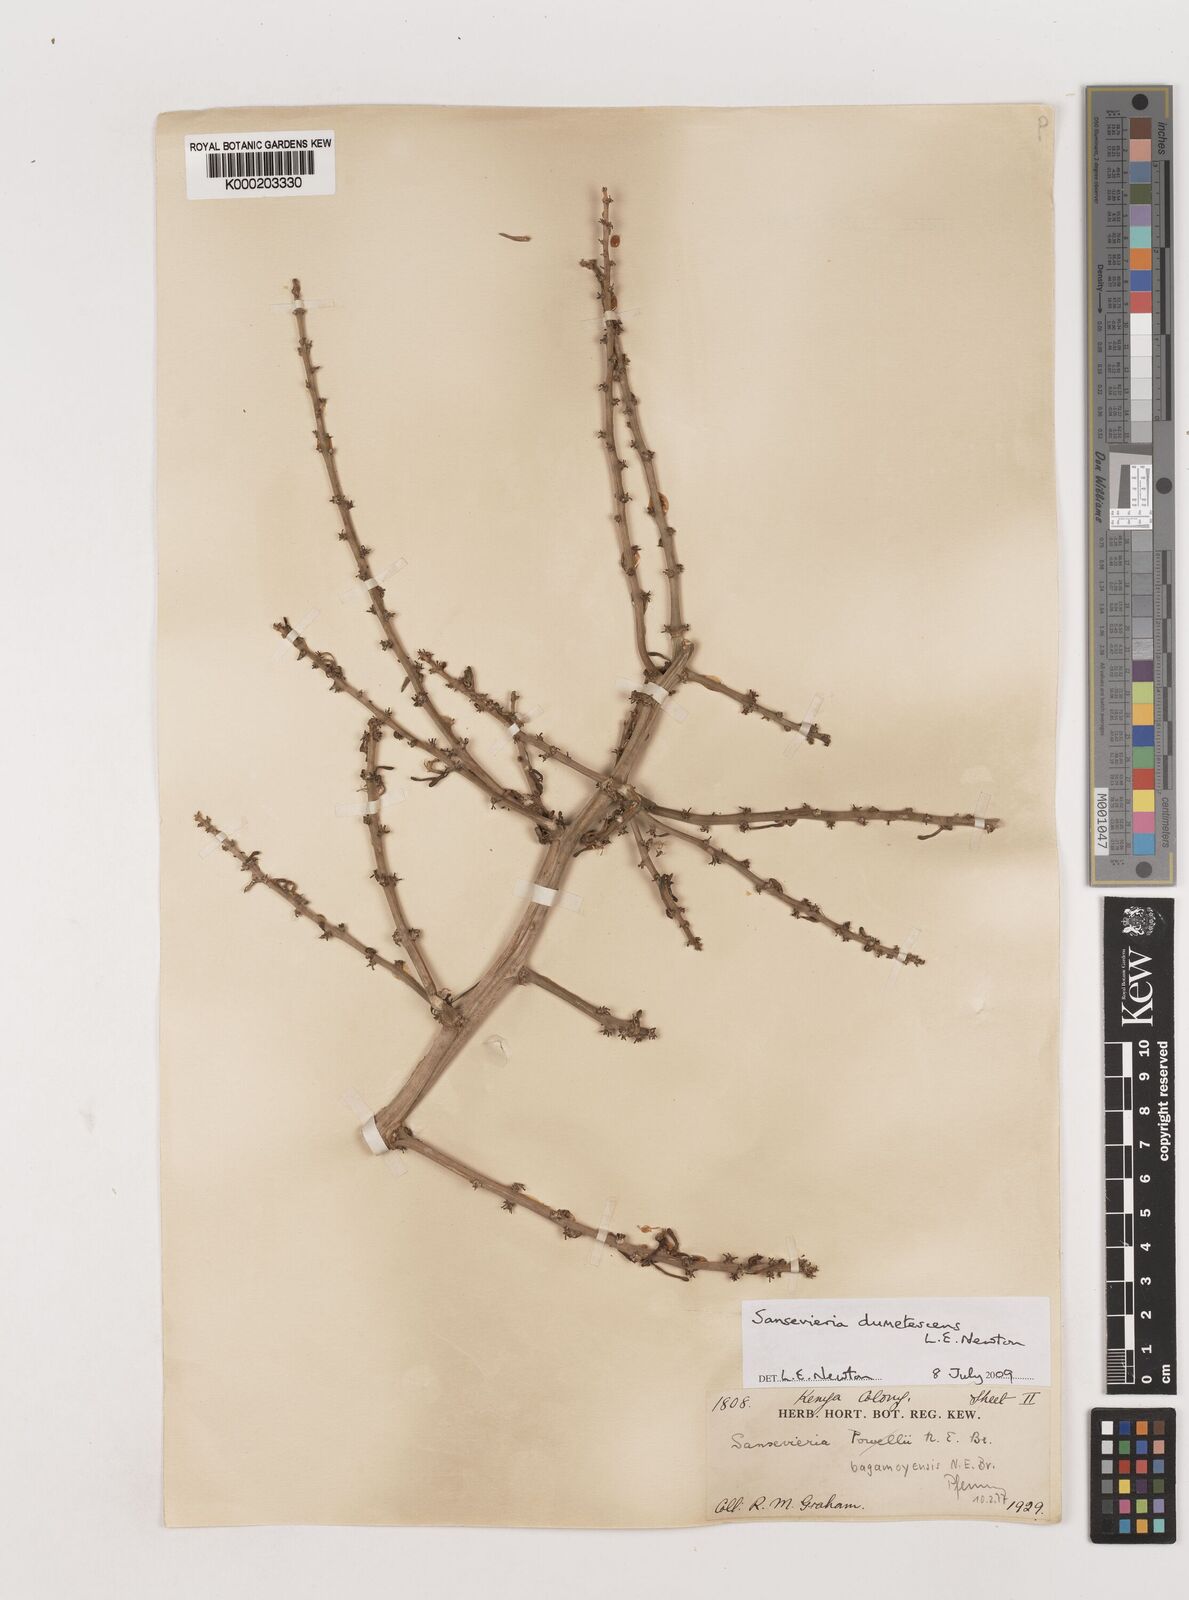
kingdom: Plantae
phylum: Tracheophyta
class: Liliopsida
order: Asparagales
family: Asparagaceae
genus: Dracaena
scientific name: Dracaena
